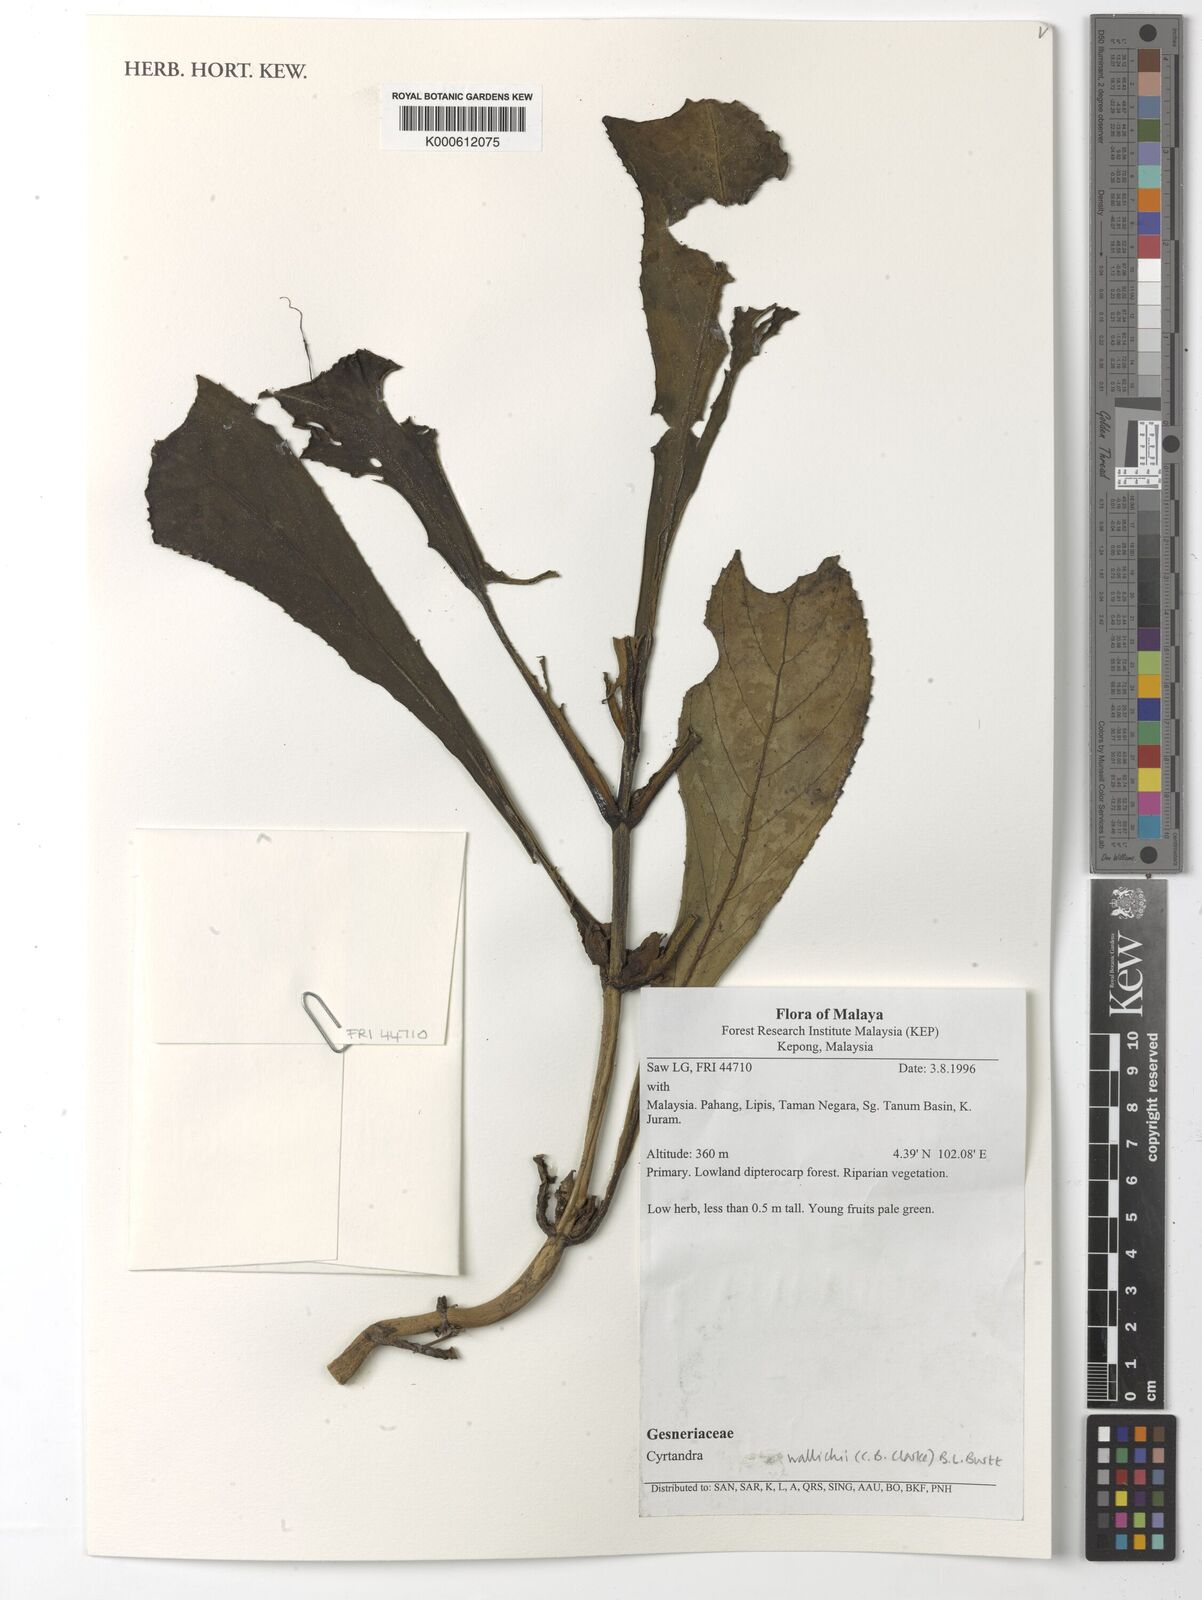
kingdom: Plantae
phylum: Tracheophyta
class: Magnoliopsida
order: Lamiales
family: Gesneriaceae
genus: Cyrtandra
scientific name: Cyrtandra wallichii
